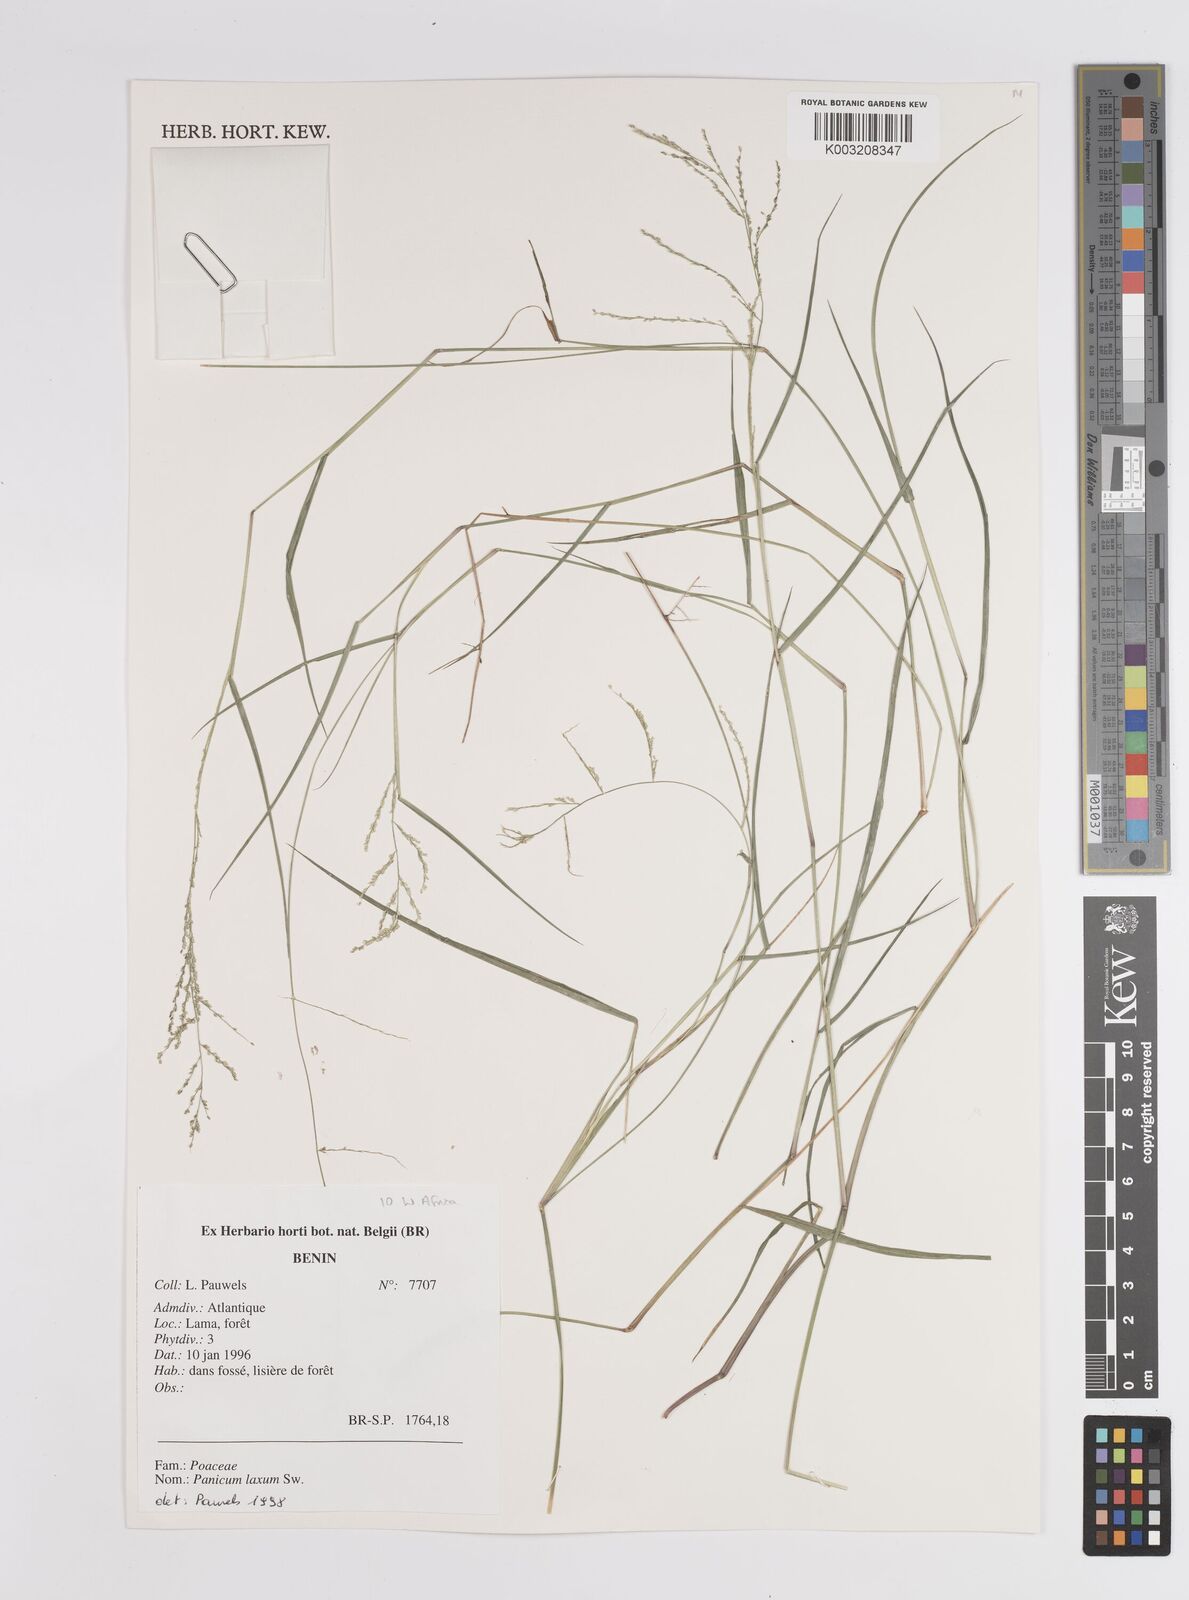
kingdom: Plantae
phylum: Tracheophyta
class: Liliopsida
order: Poales
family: Poaceae
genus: Steinchisma
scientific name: Steinchisma laxum
